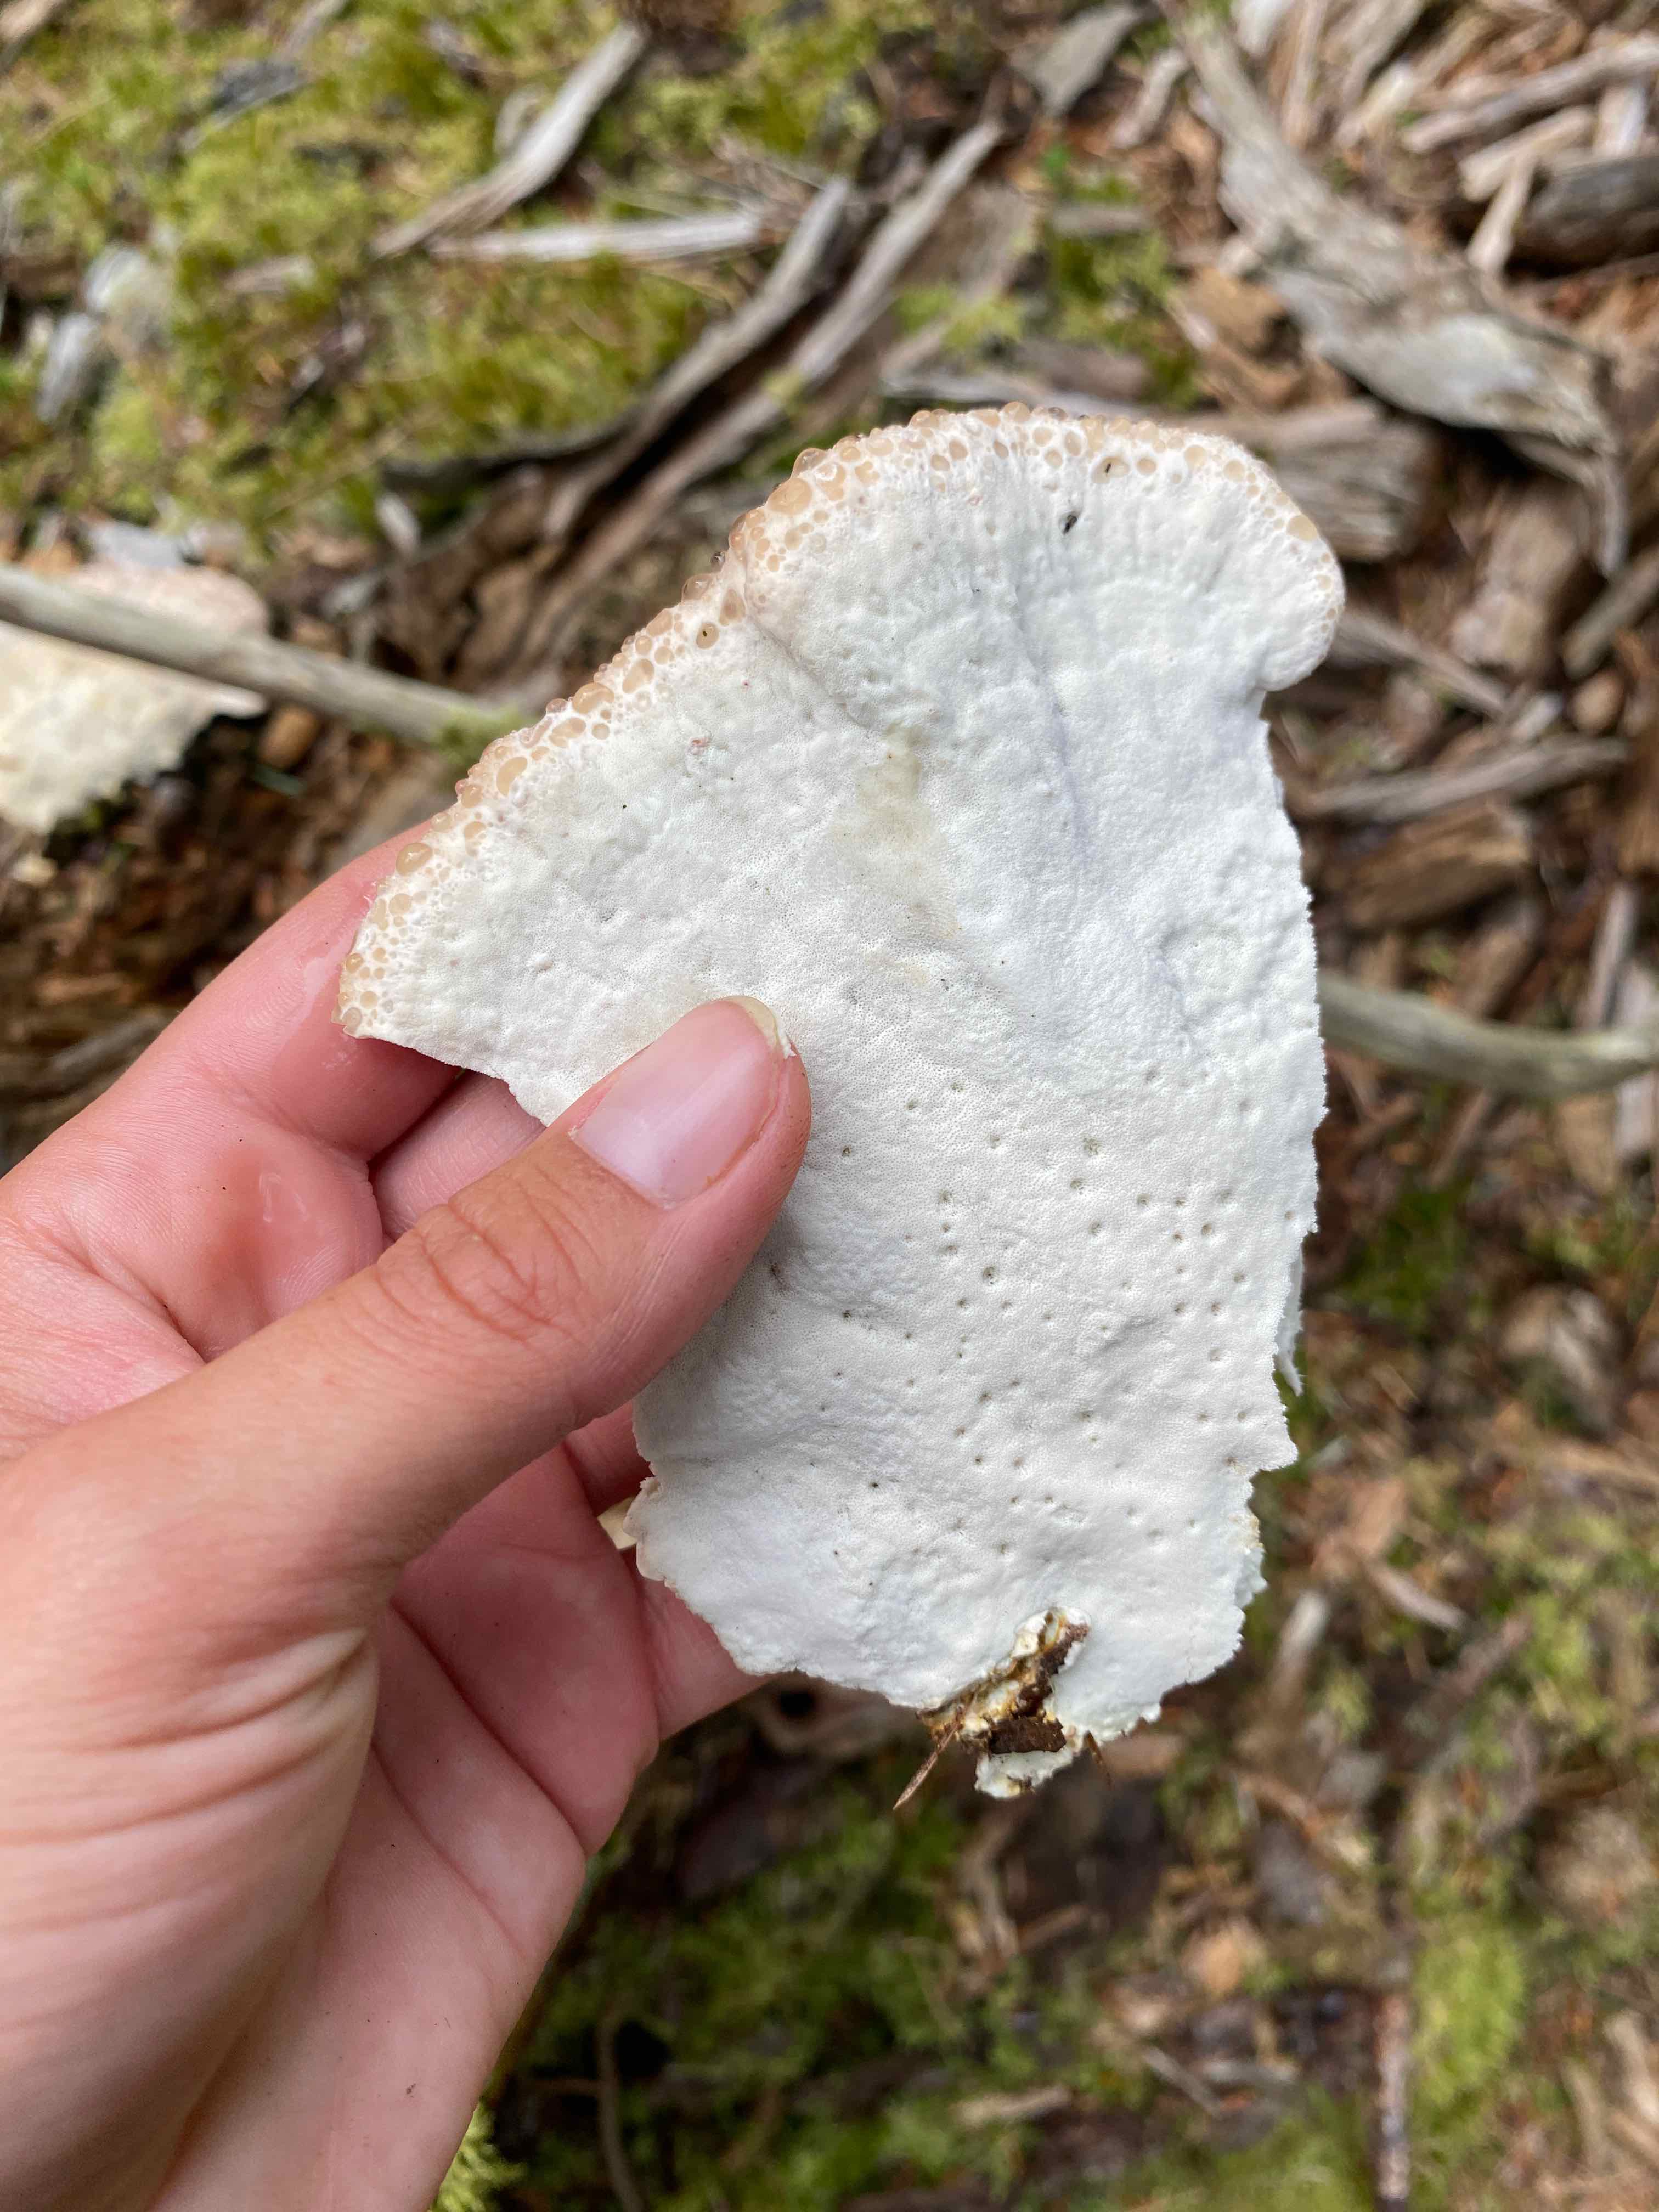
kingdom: Fungi
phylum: Basidiomycota
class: Agaricomycetes
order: Polyporales
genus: Calcipostia
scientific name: Calcipostia guttulata
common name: dråbe-kødporesvamp
